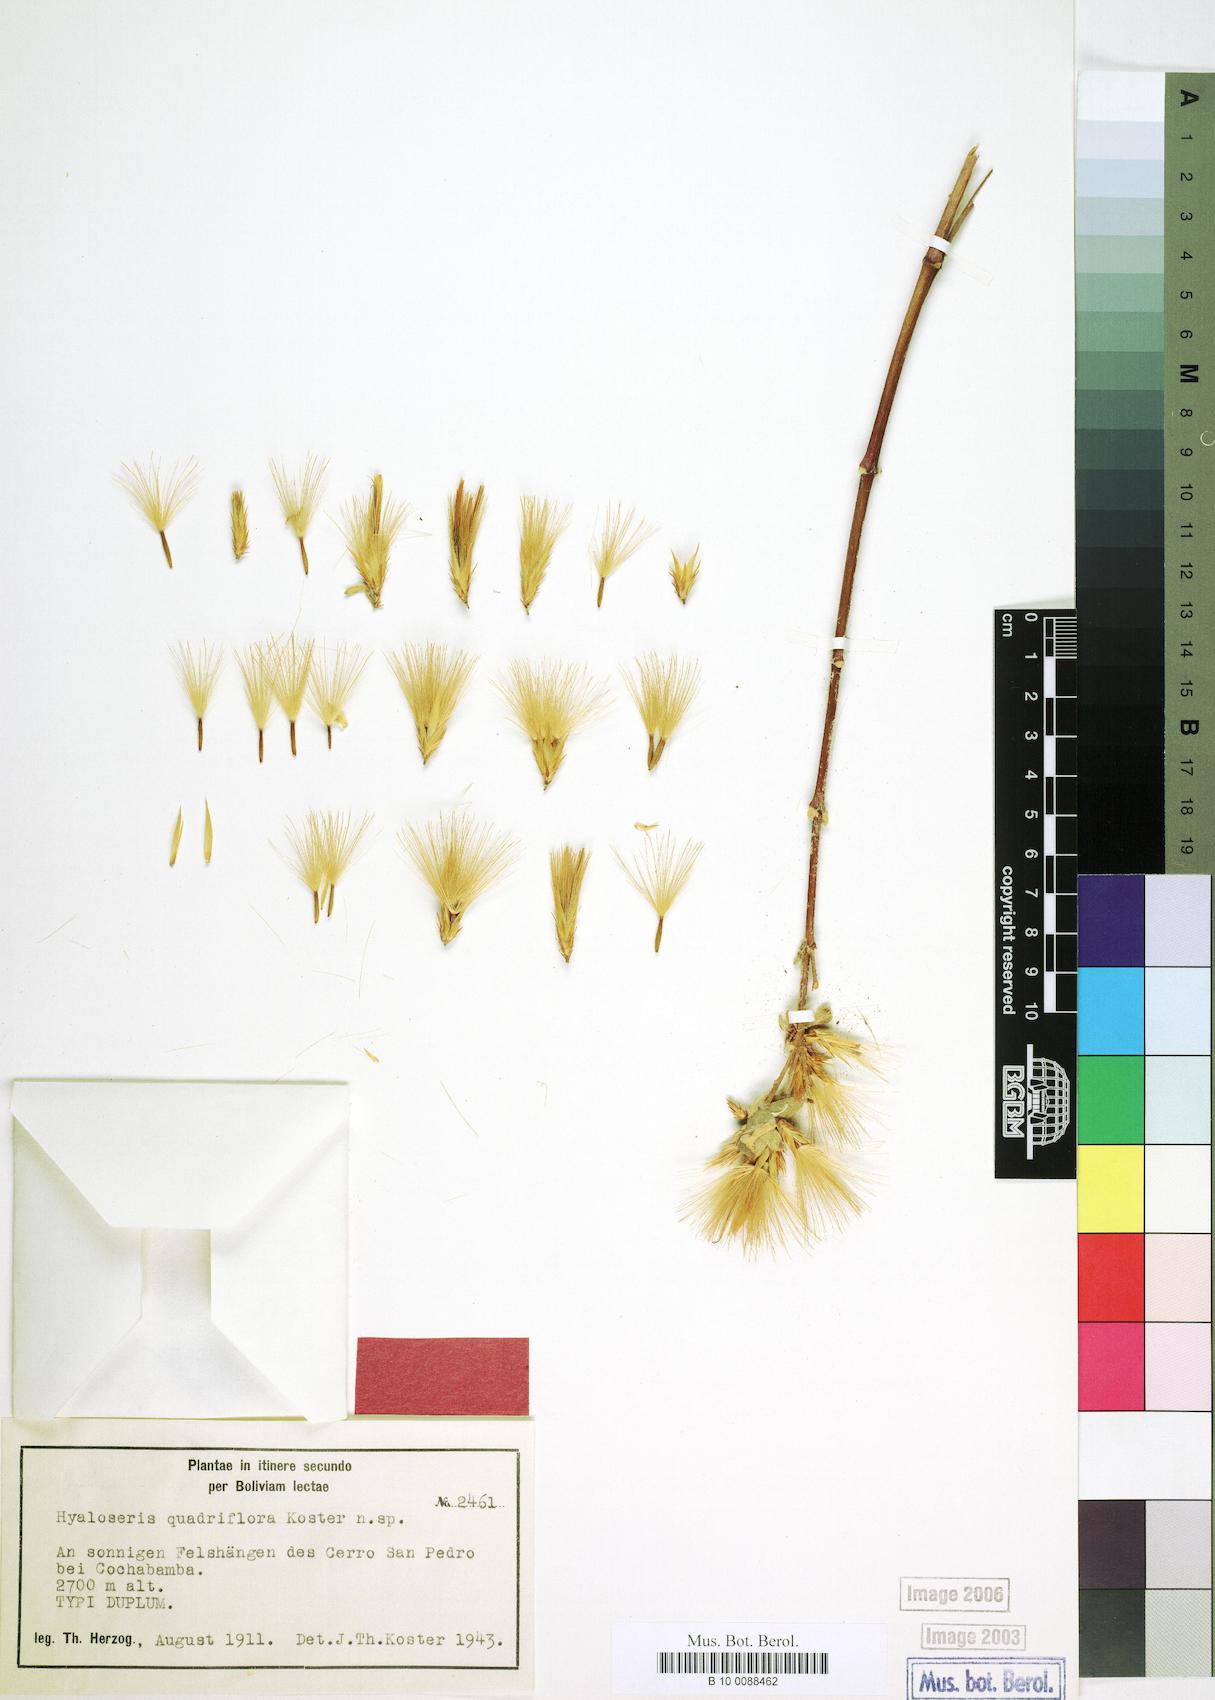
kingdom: Plantae
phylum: Tracheophyta
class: Magnoliopsida
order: Asterales
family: Asteraceae
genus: Hyaloseris
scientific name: Hyaloseris quadriflora
